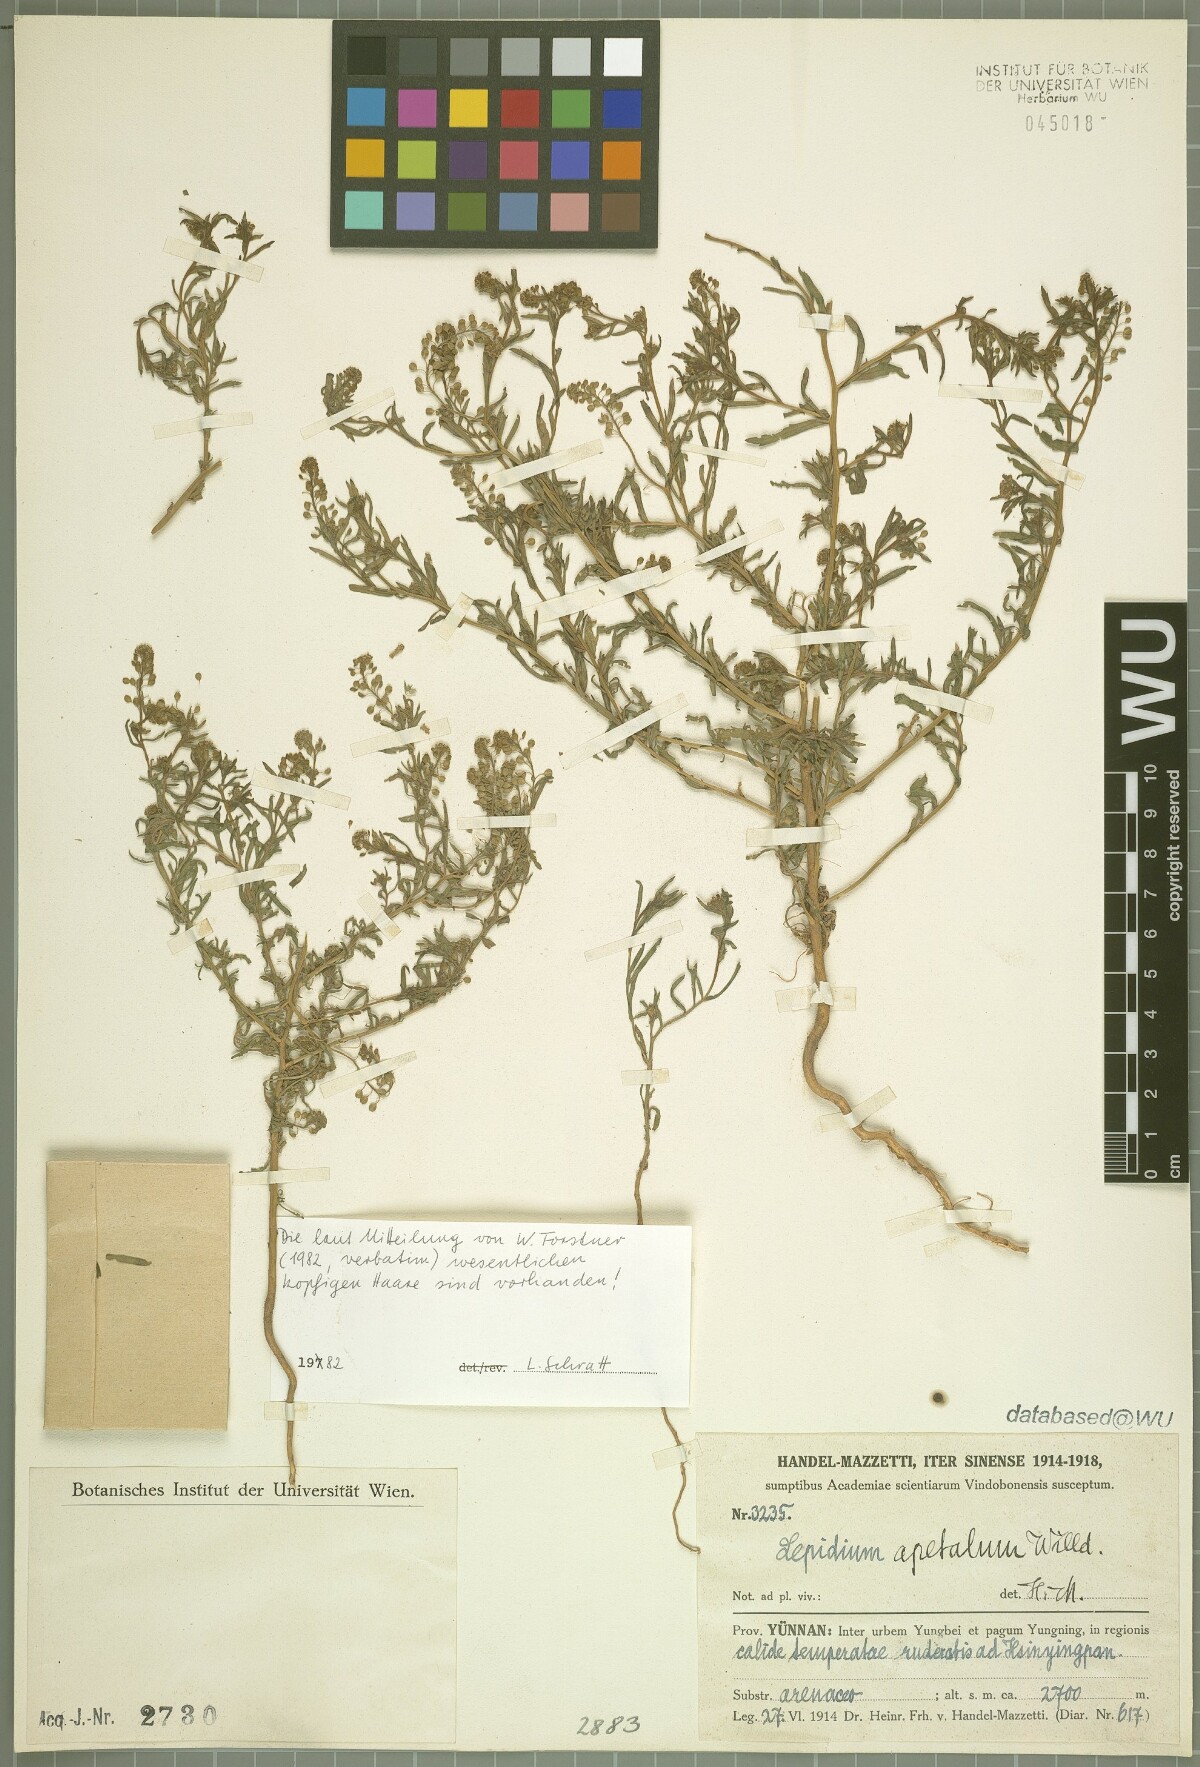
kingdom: Plantae
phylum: Tracheophyta
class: Magnoliopsida
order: Brassicales
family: Brassicaceae
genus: Lepidium
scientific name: Lepidium apetalum
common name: Pepperweed
